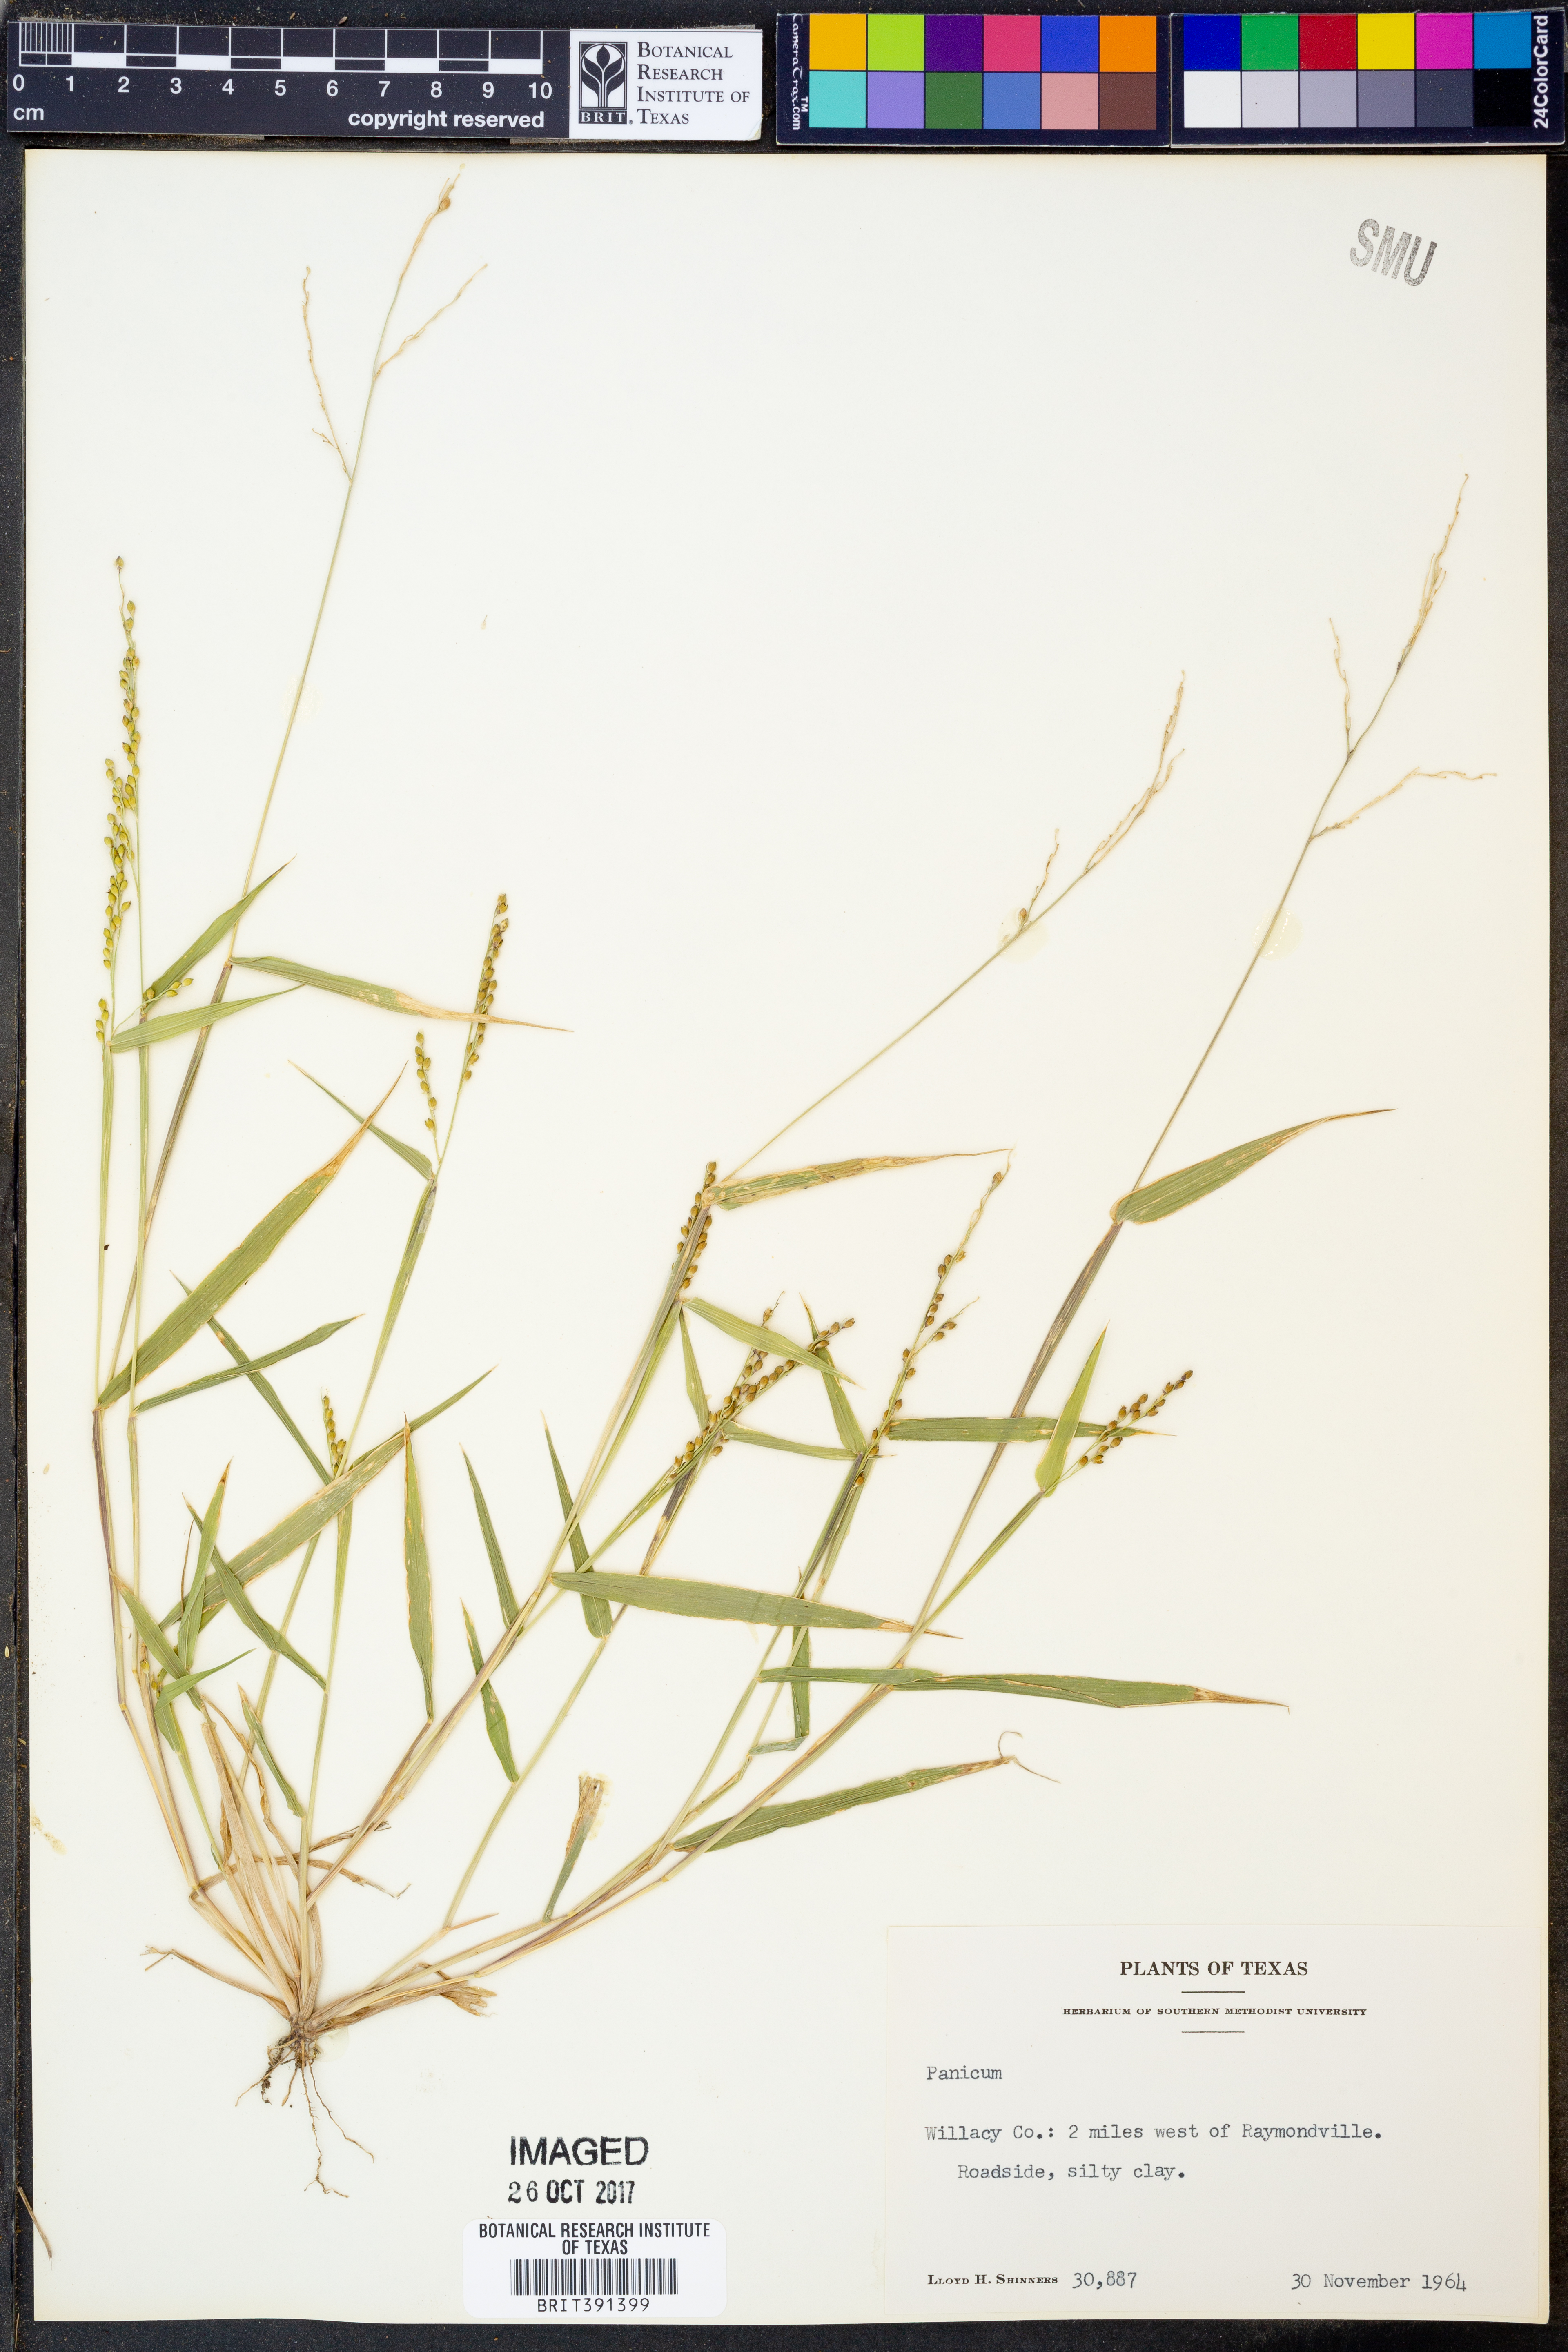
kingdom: Plantae
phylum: Tracheophyta
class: Liliopsida
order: Poales
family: Poaceae
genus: Panicum
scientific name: Panicum
